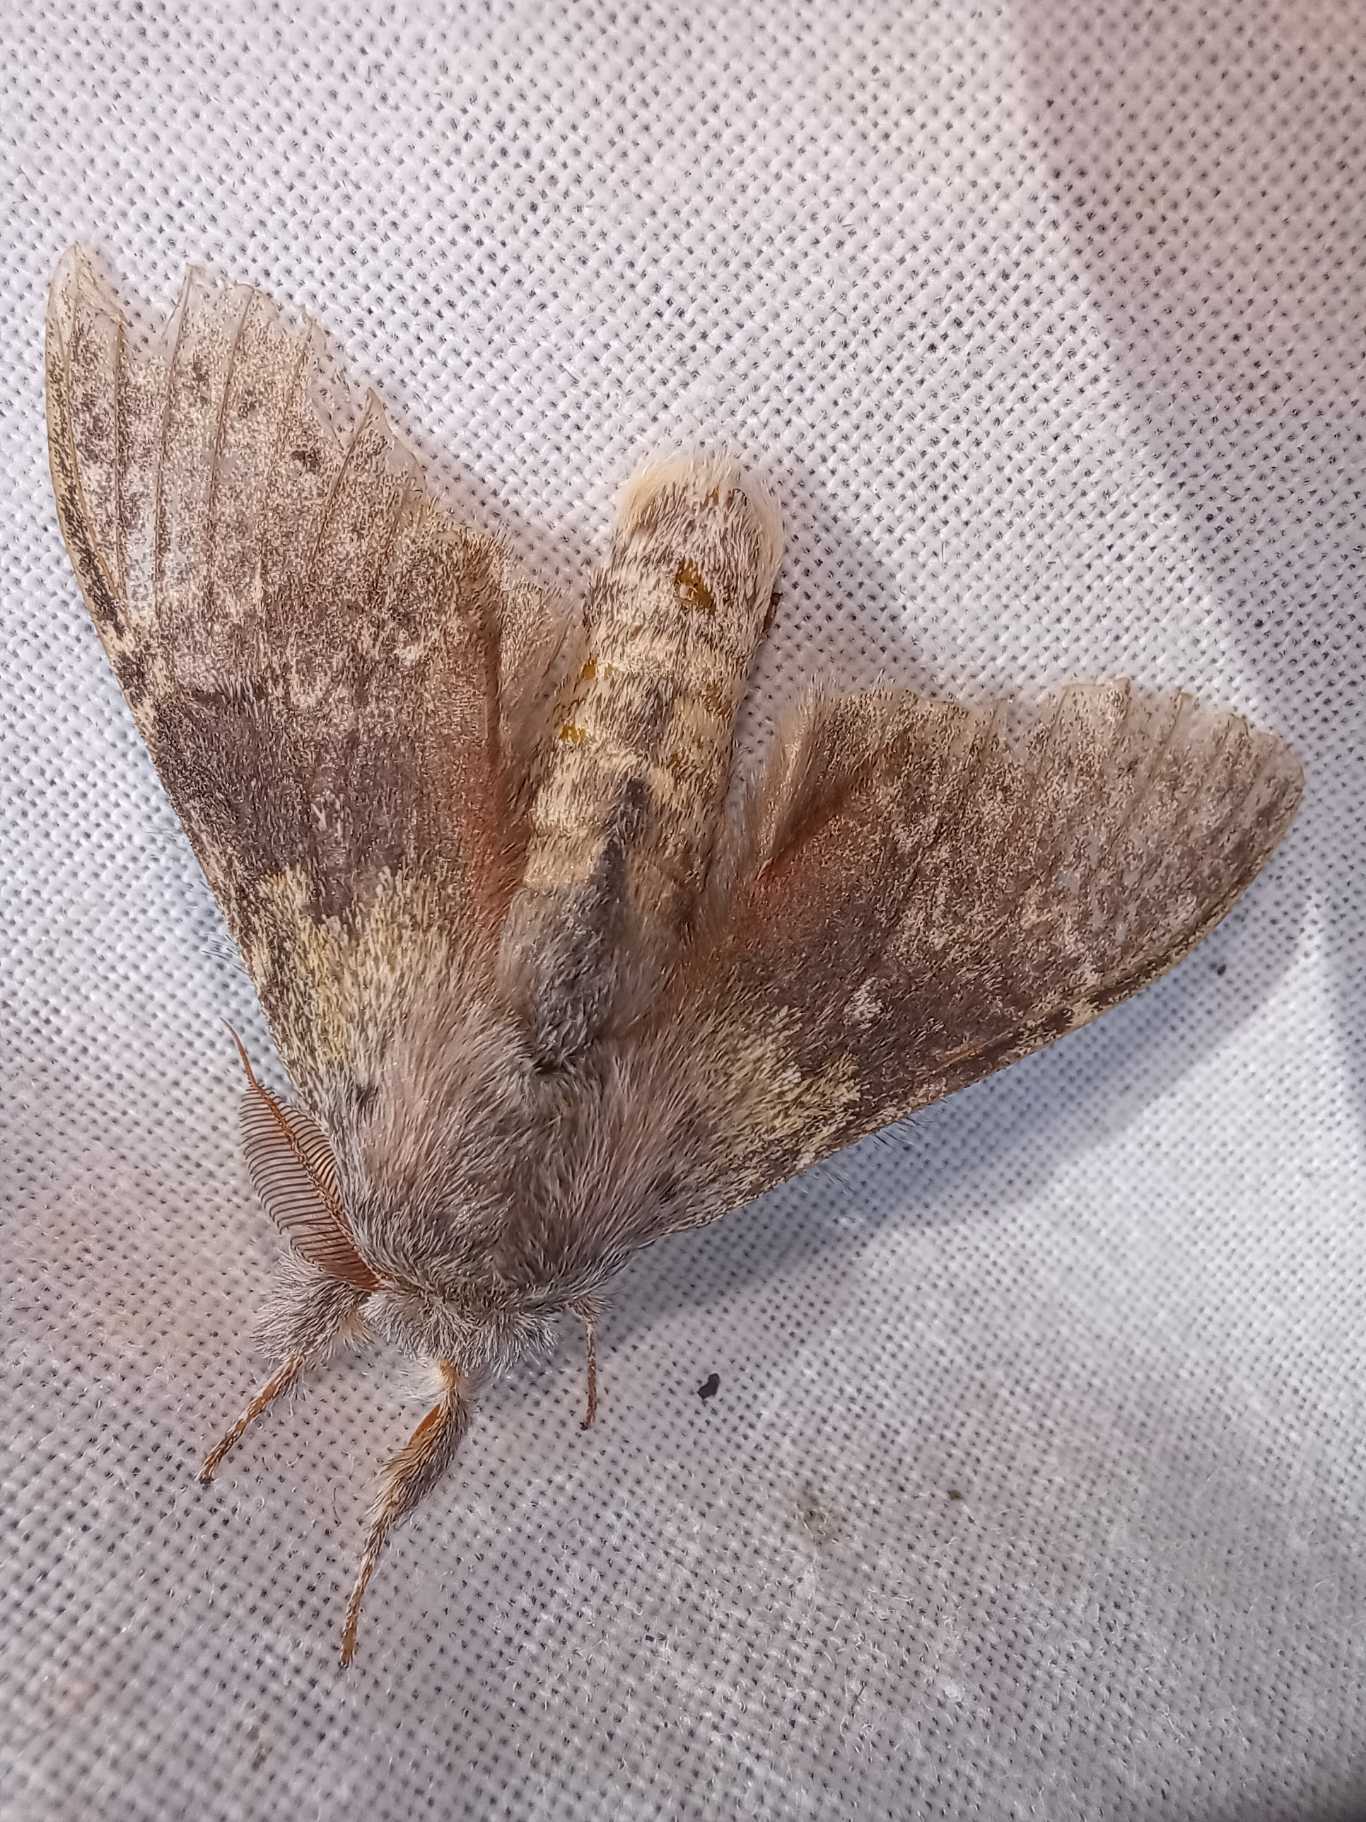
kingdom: Animalia
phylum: Arthropoda
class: Insecta
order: Lepidoptera
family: Notodontidae
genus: Stauropus
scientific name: Stauropus fagi
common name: Bøgespinder
